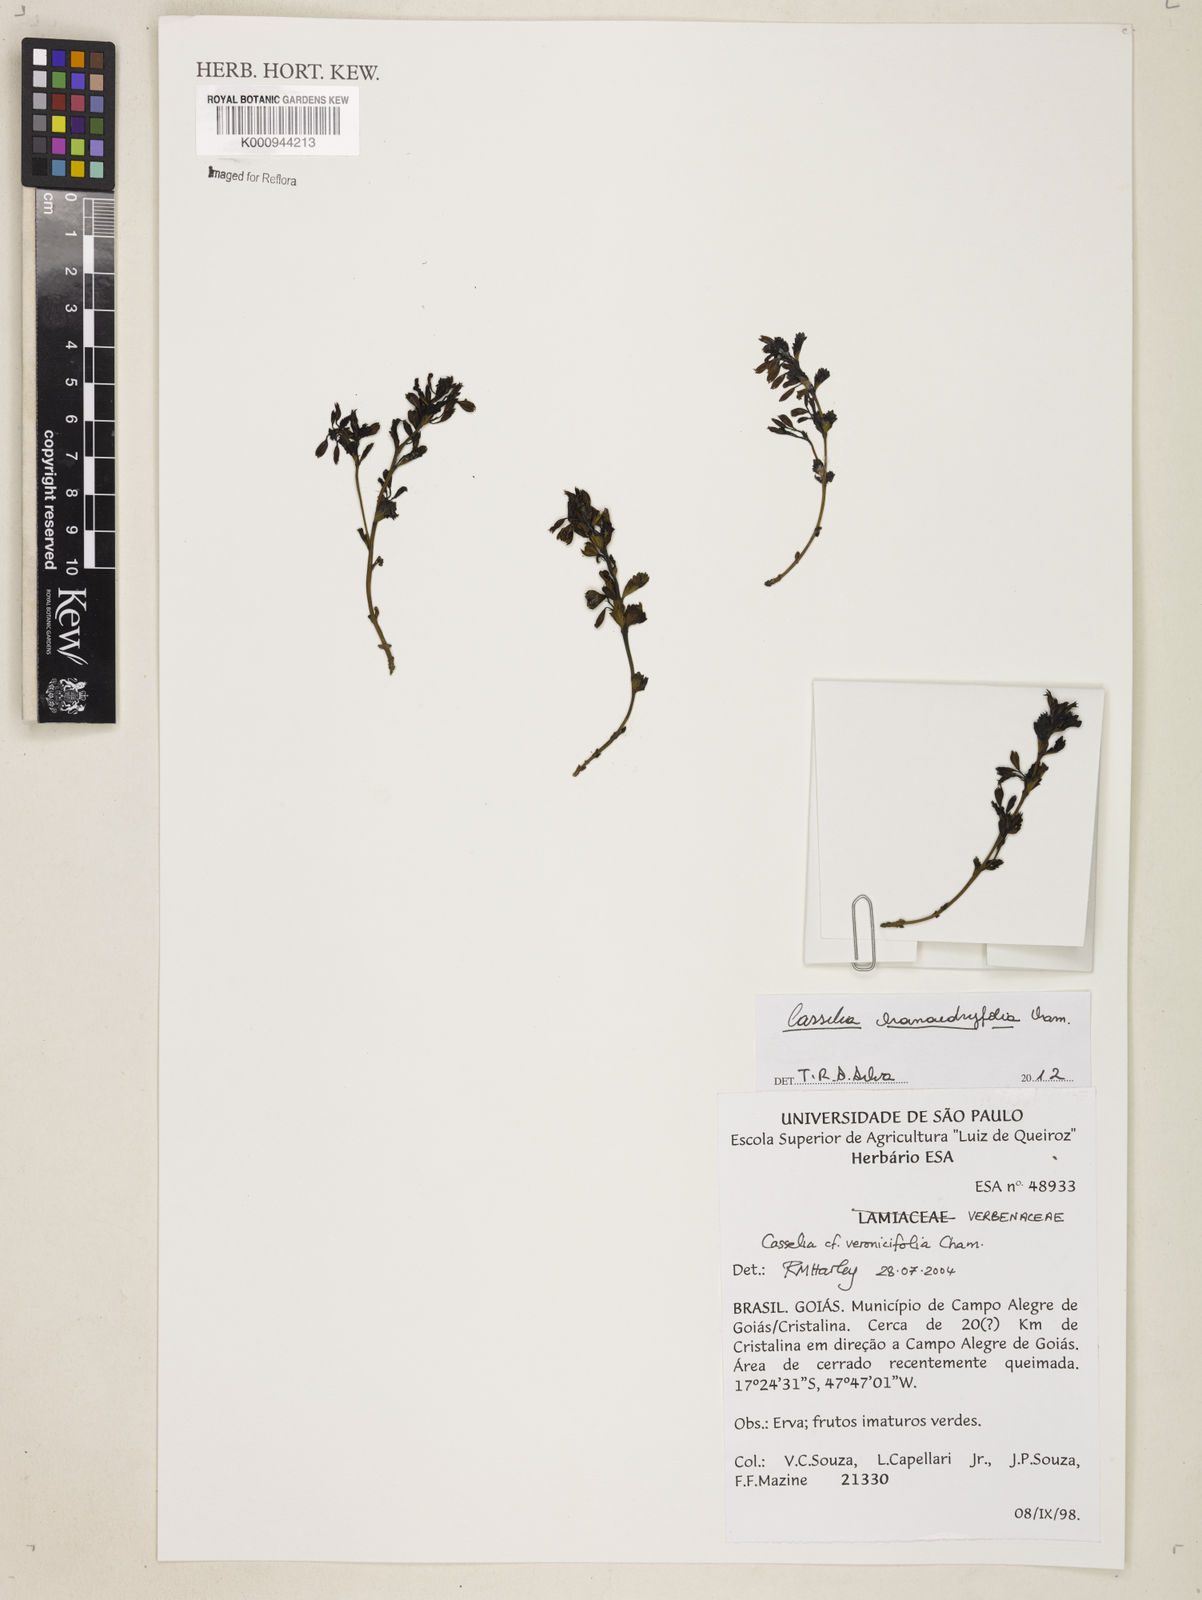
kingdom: Plantae
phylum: Tracheophyta
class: Magnoliopsida
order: Lamiales
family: Verbenaceae
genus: Casselia
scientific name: Casselia chamaedryfolia
